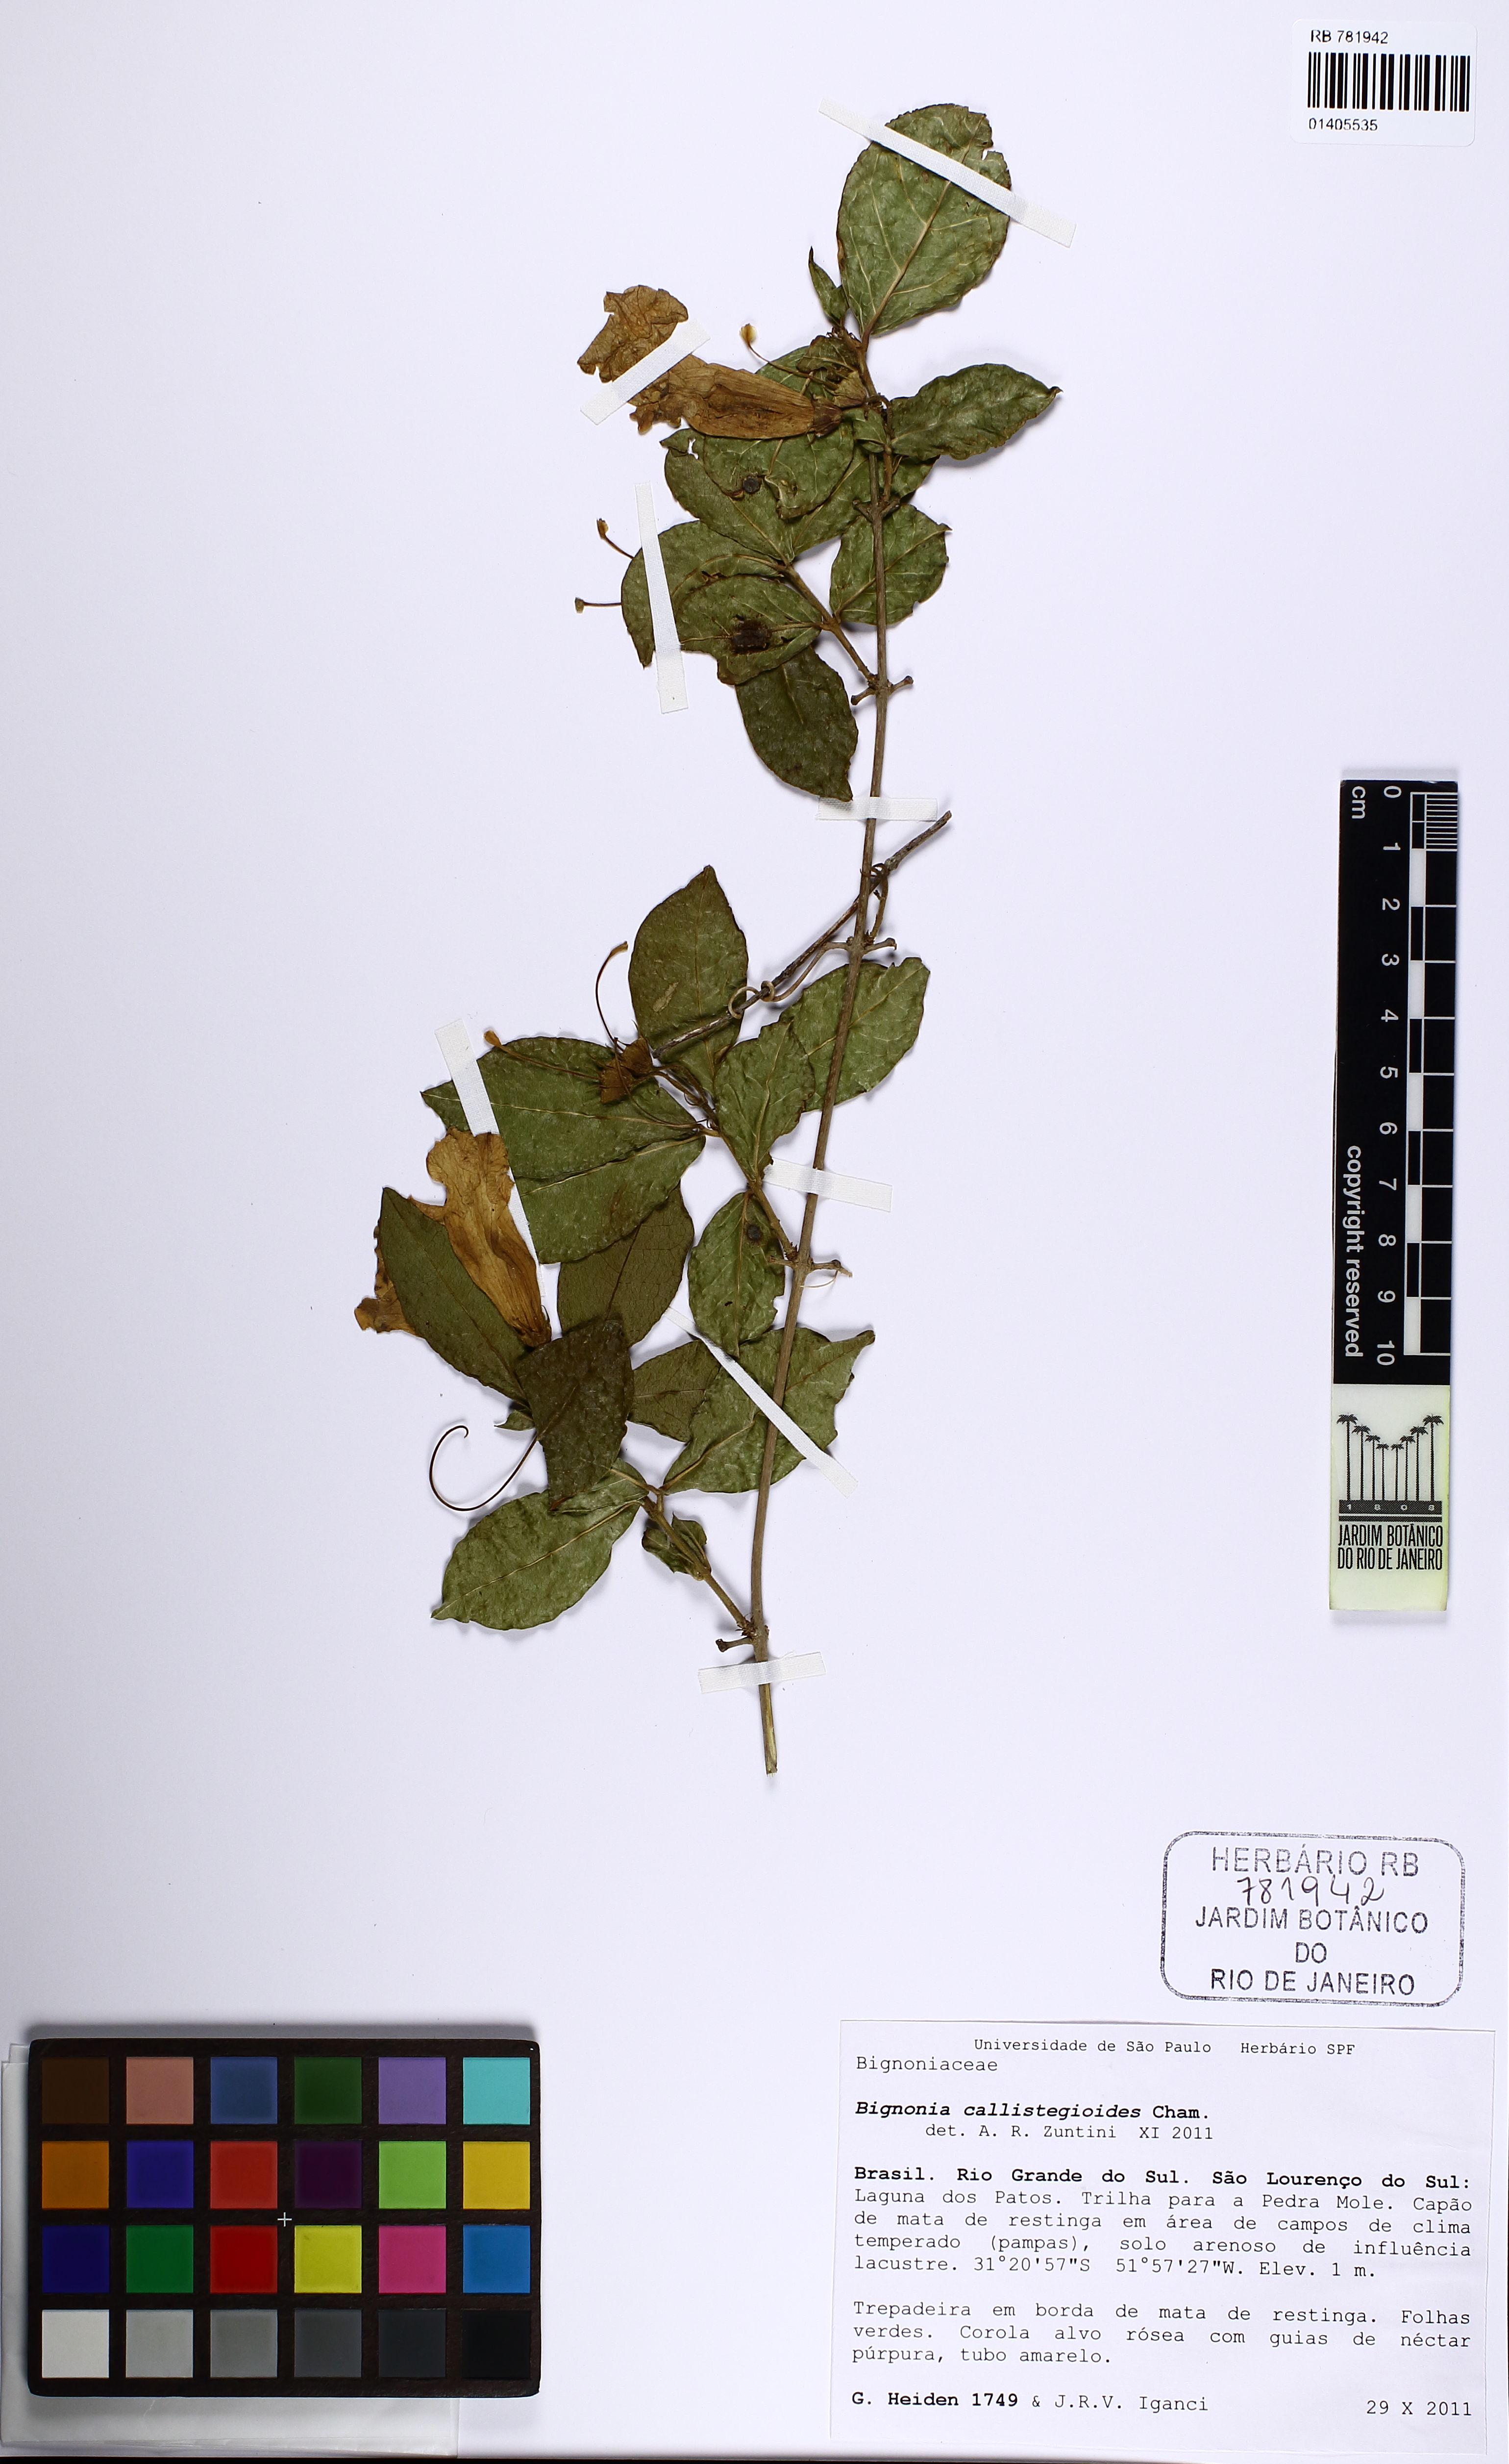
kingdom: Plantae
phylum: Tracheophyta
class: Magnoliopsida
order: Lamiales
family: Bignoniaceae
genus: Bignonia
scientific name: Bignonia callistegioides
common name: Argentine trumpetvine
